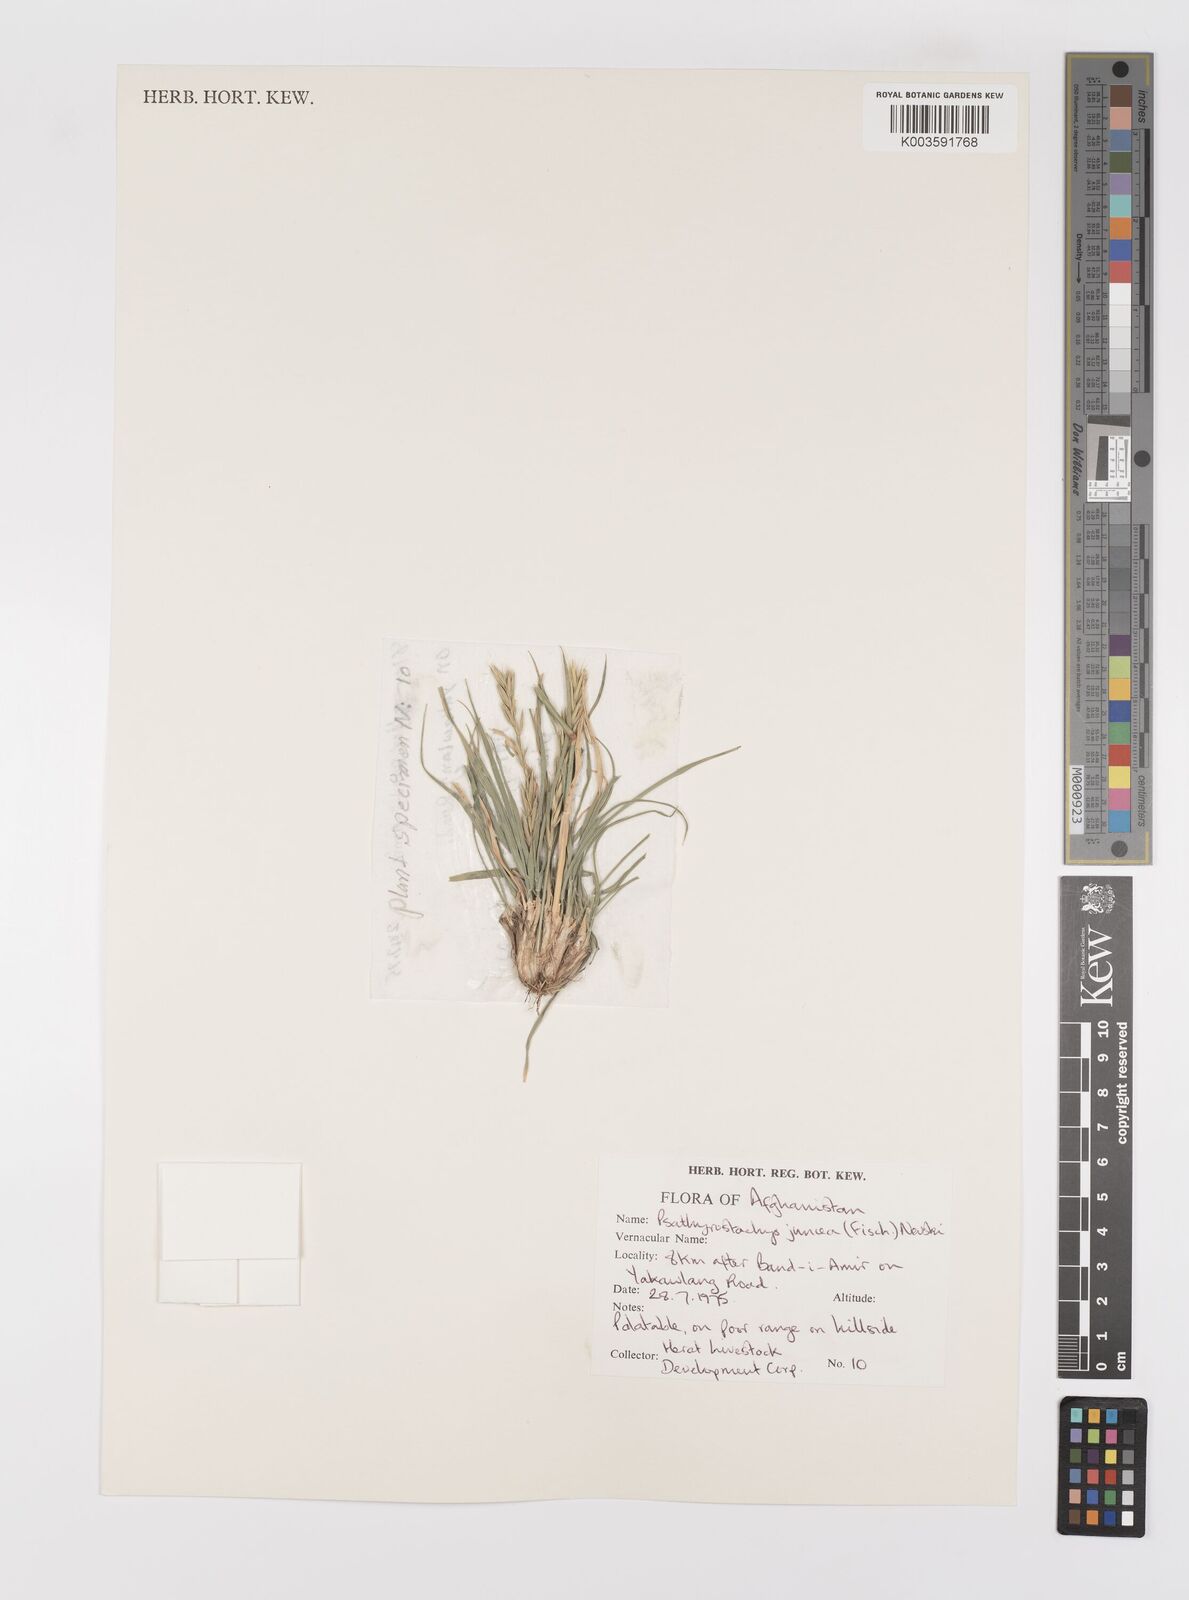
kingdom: Plantae
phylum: Tracheophyta
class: Liliopsida
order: Poales
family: Poaceae
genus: Psathyrostachys
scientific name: Psathyrostachys juncea
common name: Russian wildrye
